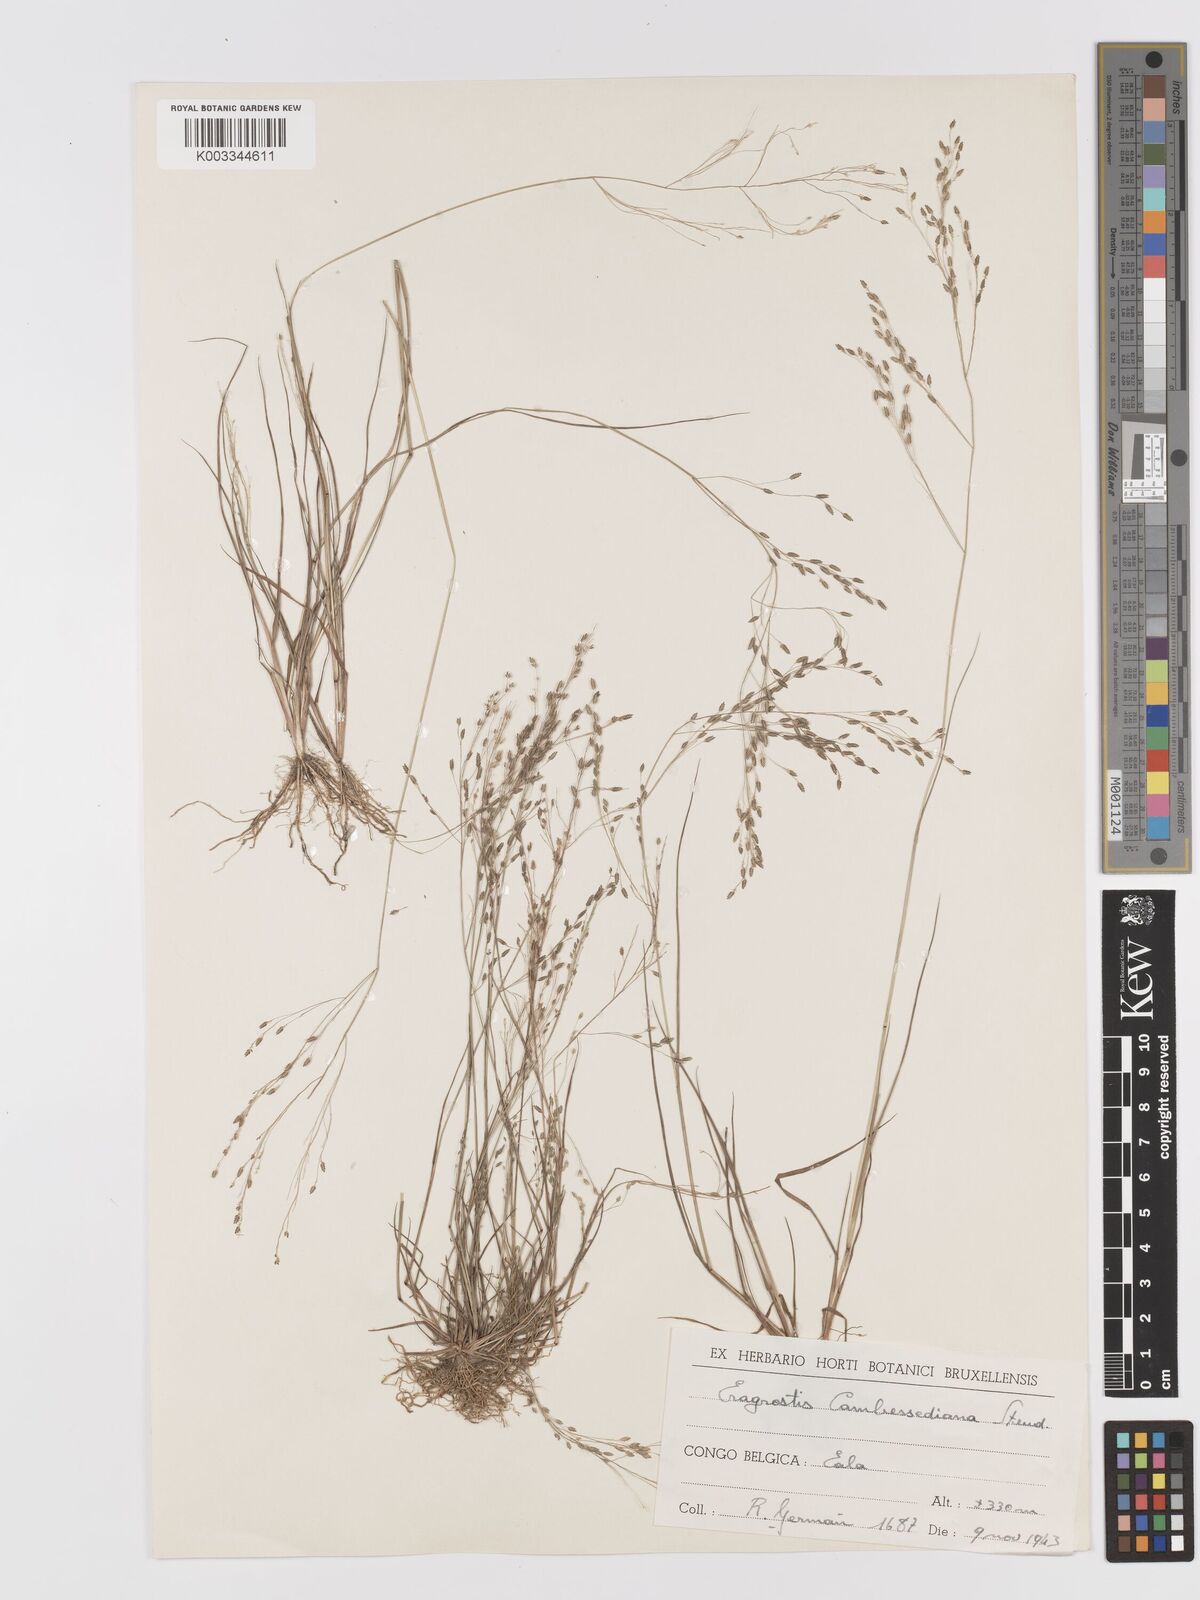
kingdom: Plantae
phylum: Tracheophyta
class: Liliopsida
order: Poales
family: Poaceae
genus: Eragrostis
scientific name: Eragrostis gangetica
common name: Slimflower lovegrass
